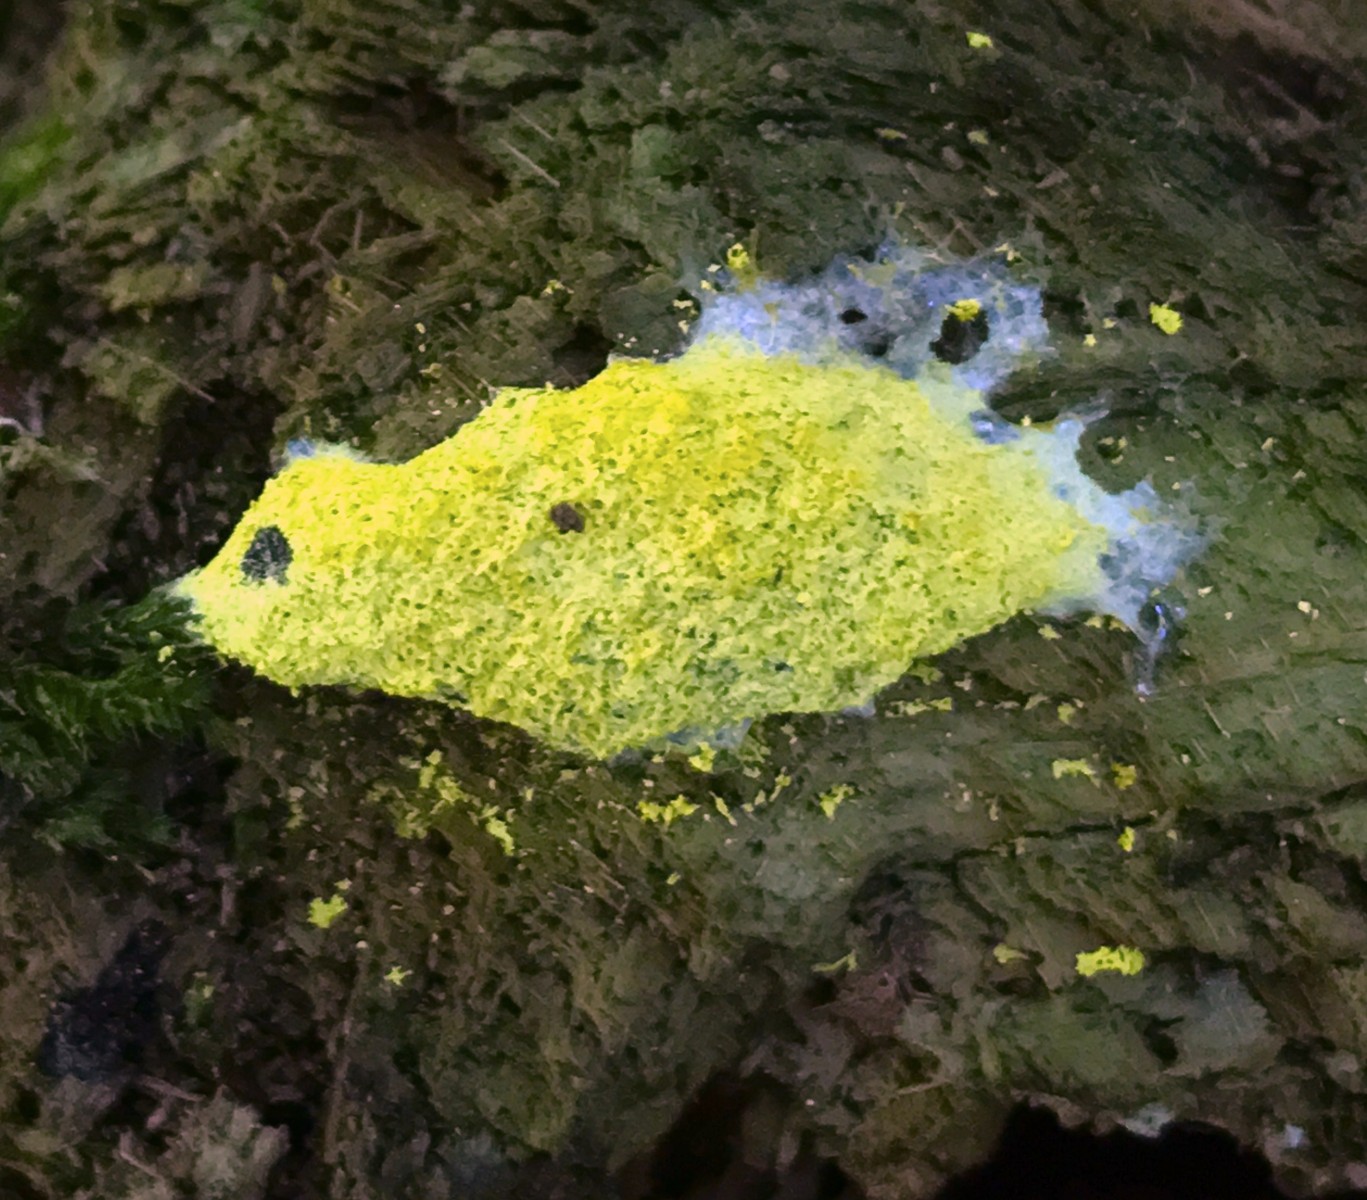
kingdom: Protozoa
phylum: Mycetozoa
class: Myxomycetes
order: Physarales
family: Physaraceae
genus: Fuligo
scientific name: Fuligo septica
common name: gul troldsmør
